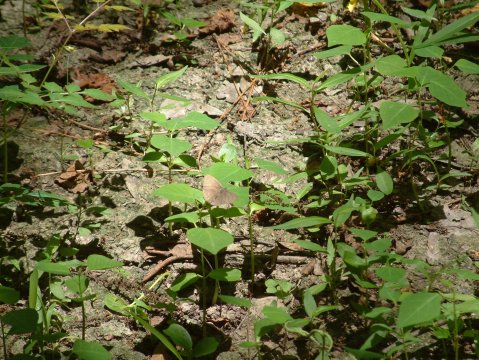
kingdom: Animalia
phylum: Arthropoda
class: Insecta
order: Lepidoptera
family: Nymphalidae
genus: Hermeuptychia
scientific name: Hermeuptychia hermes
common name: Carolina Satyr
